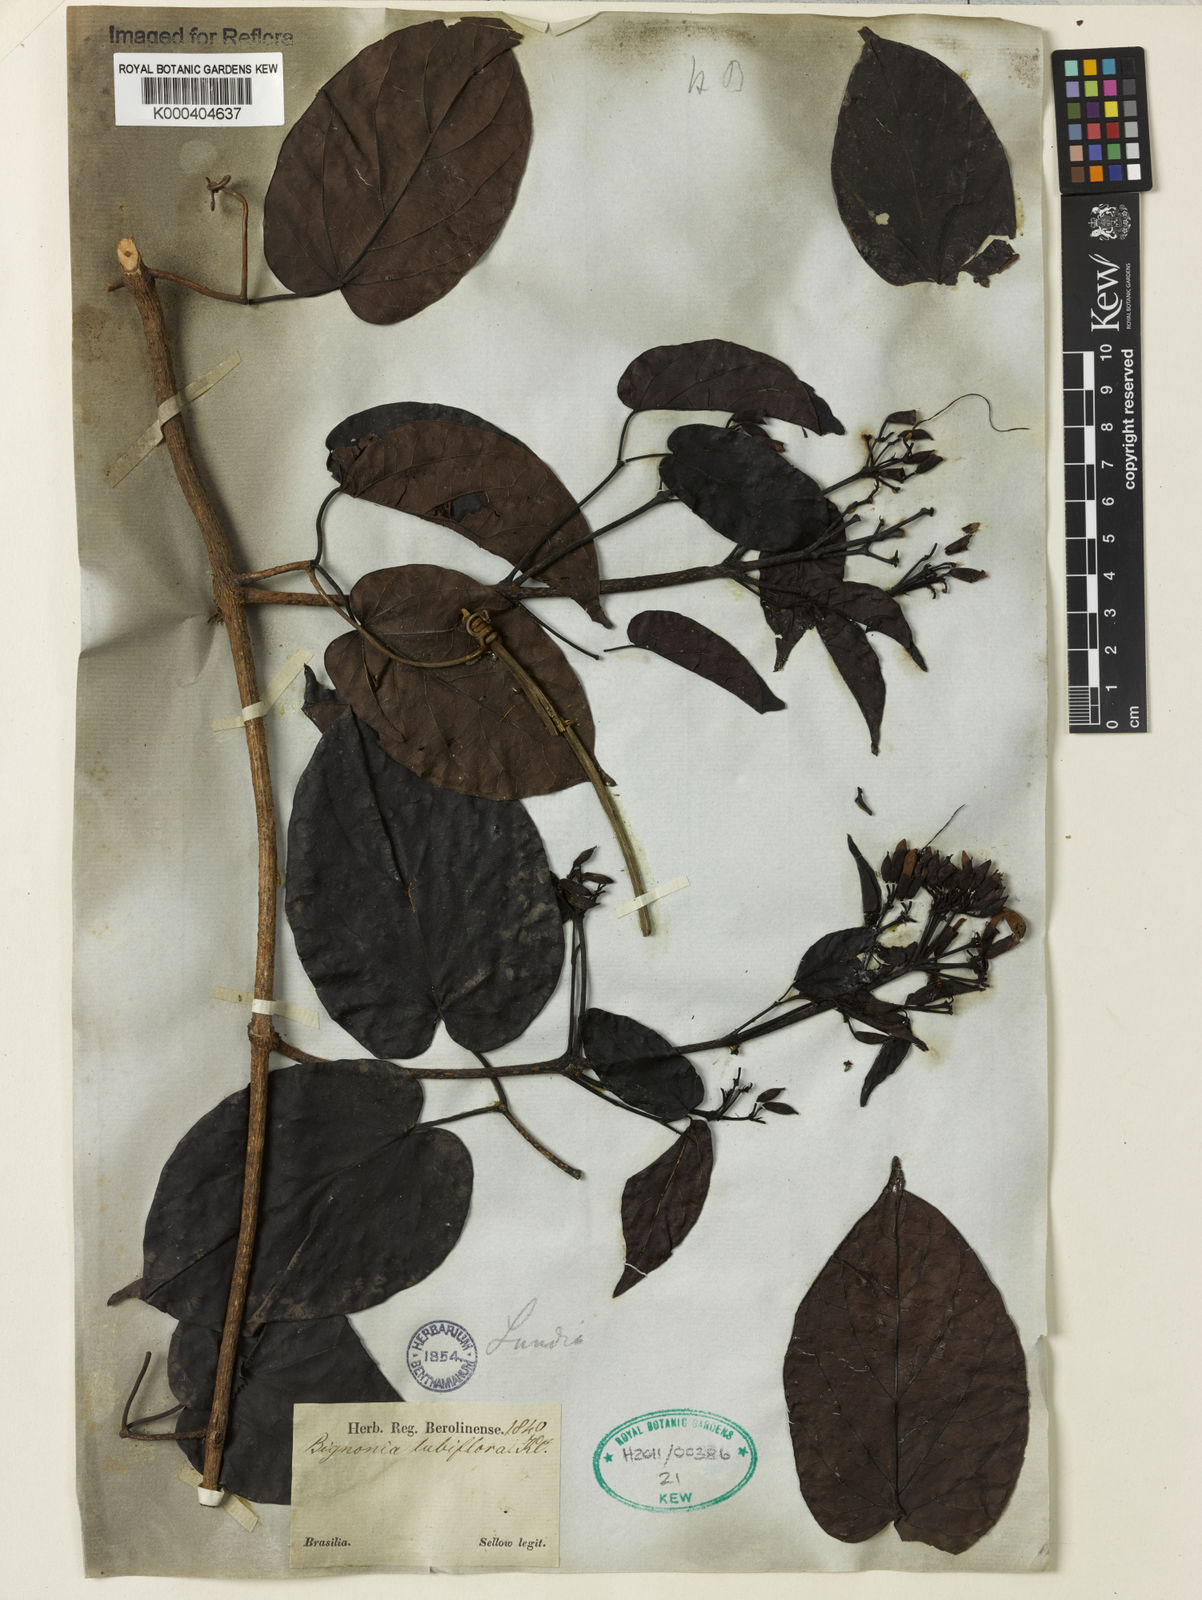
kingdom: Plantae
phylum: Tracheophyta
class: Magnoliopsida
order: Lamiales
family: Bignoniaceae
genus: Lundia
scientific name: Lundia
